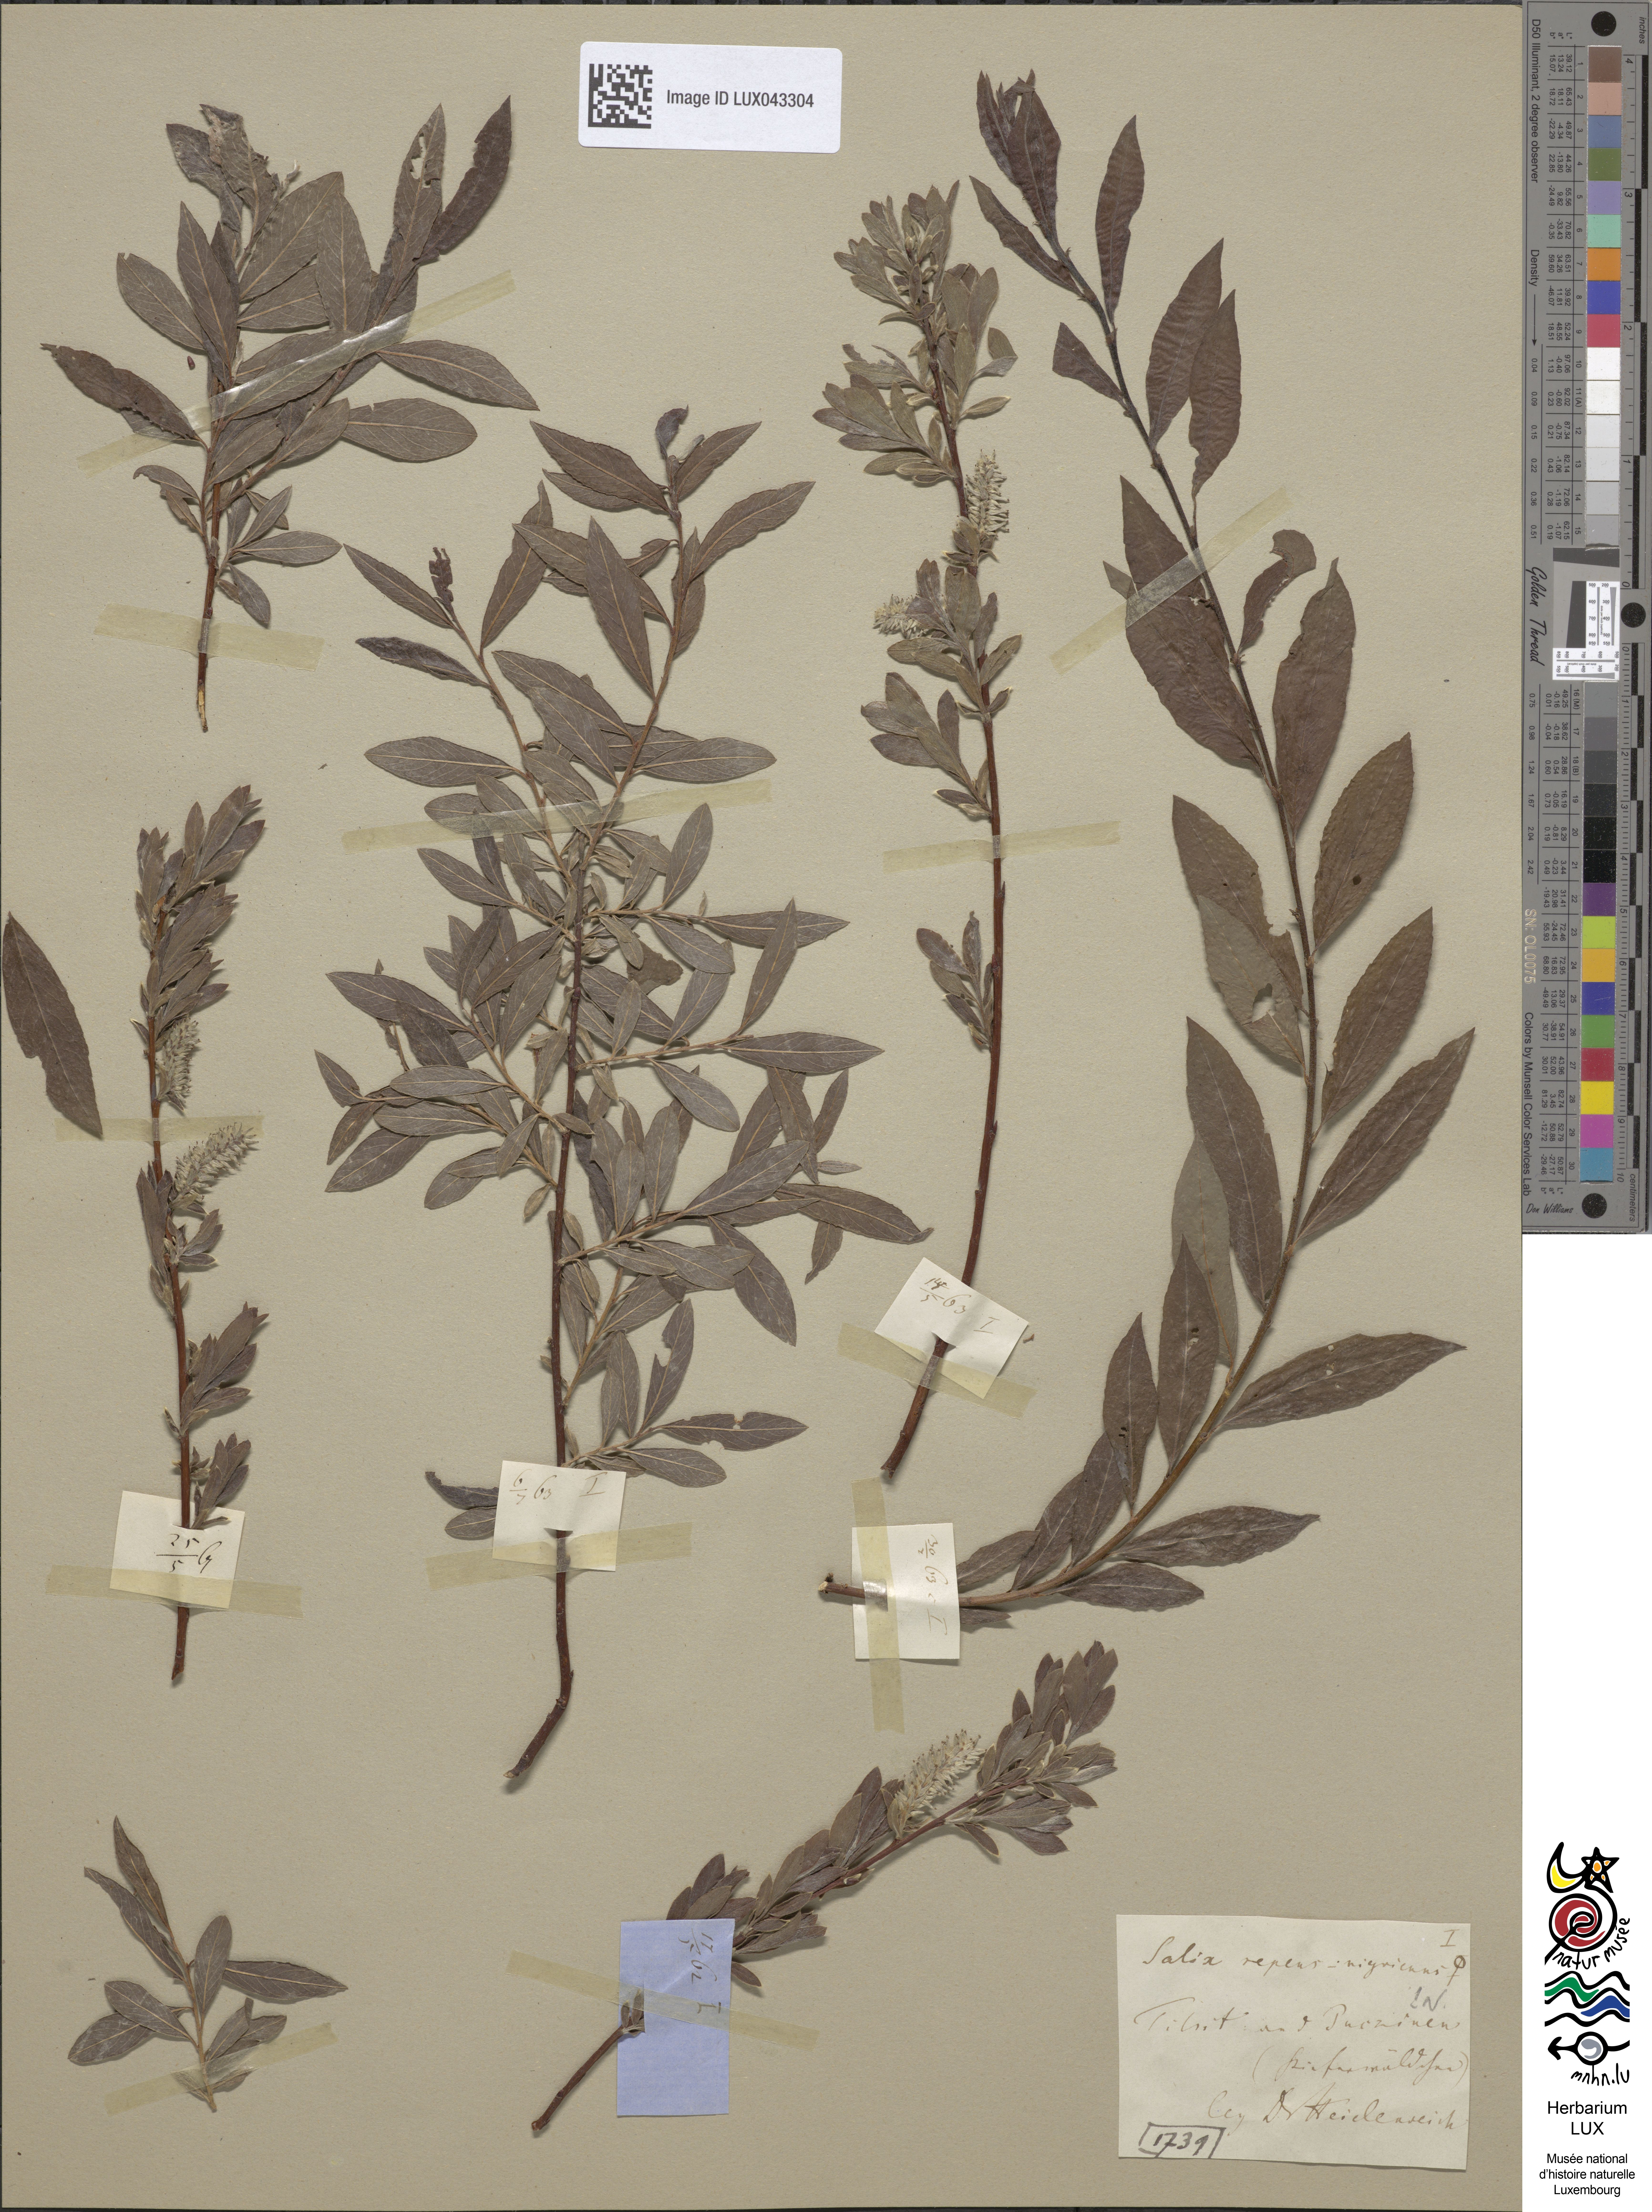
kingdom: Plantae
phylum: Tracheophyta
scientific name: Tracheophyta
